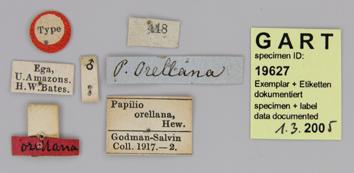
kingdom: Animalia
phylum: Arthropoda
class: Insecta
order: Lepidoptera
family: Papilionidae
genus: Parides
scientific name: Parides orellana
